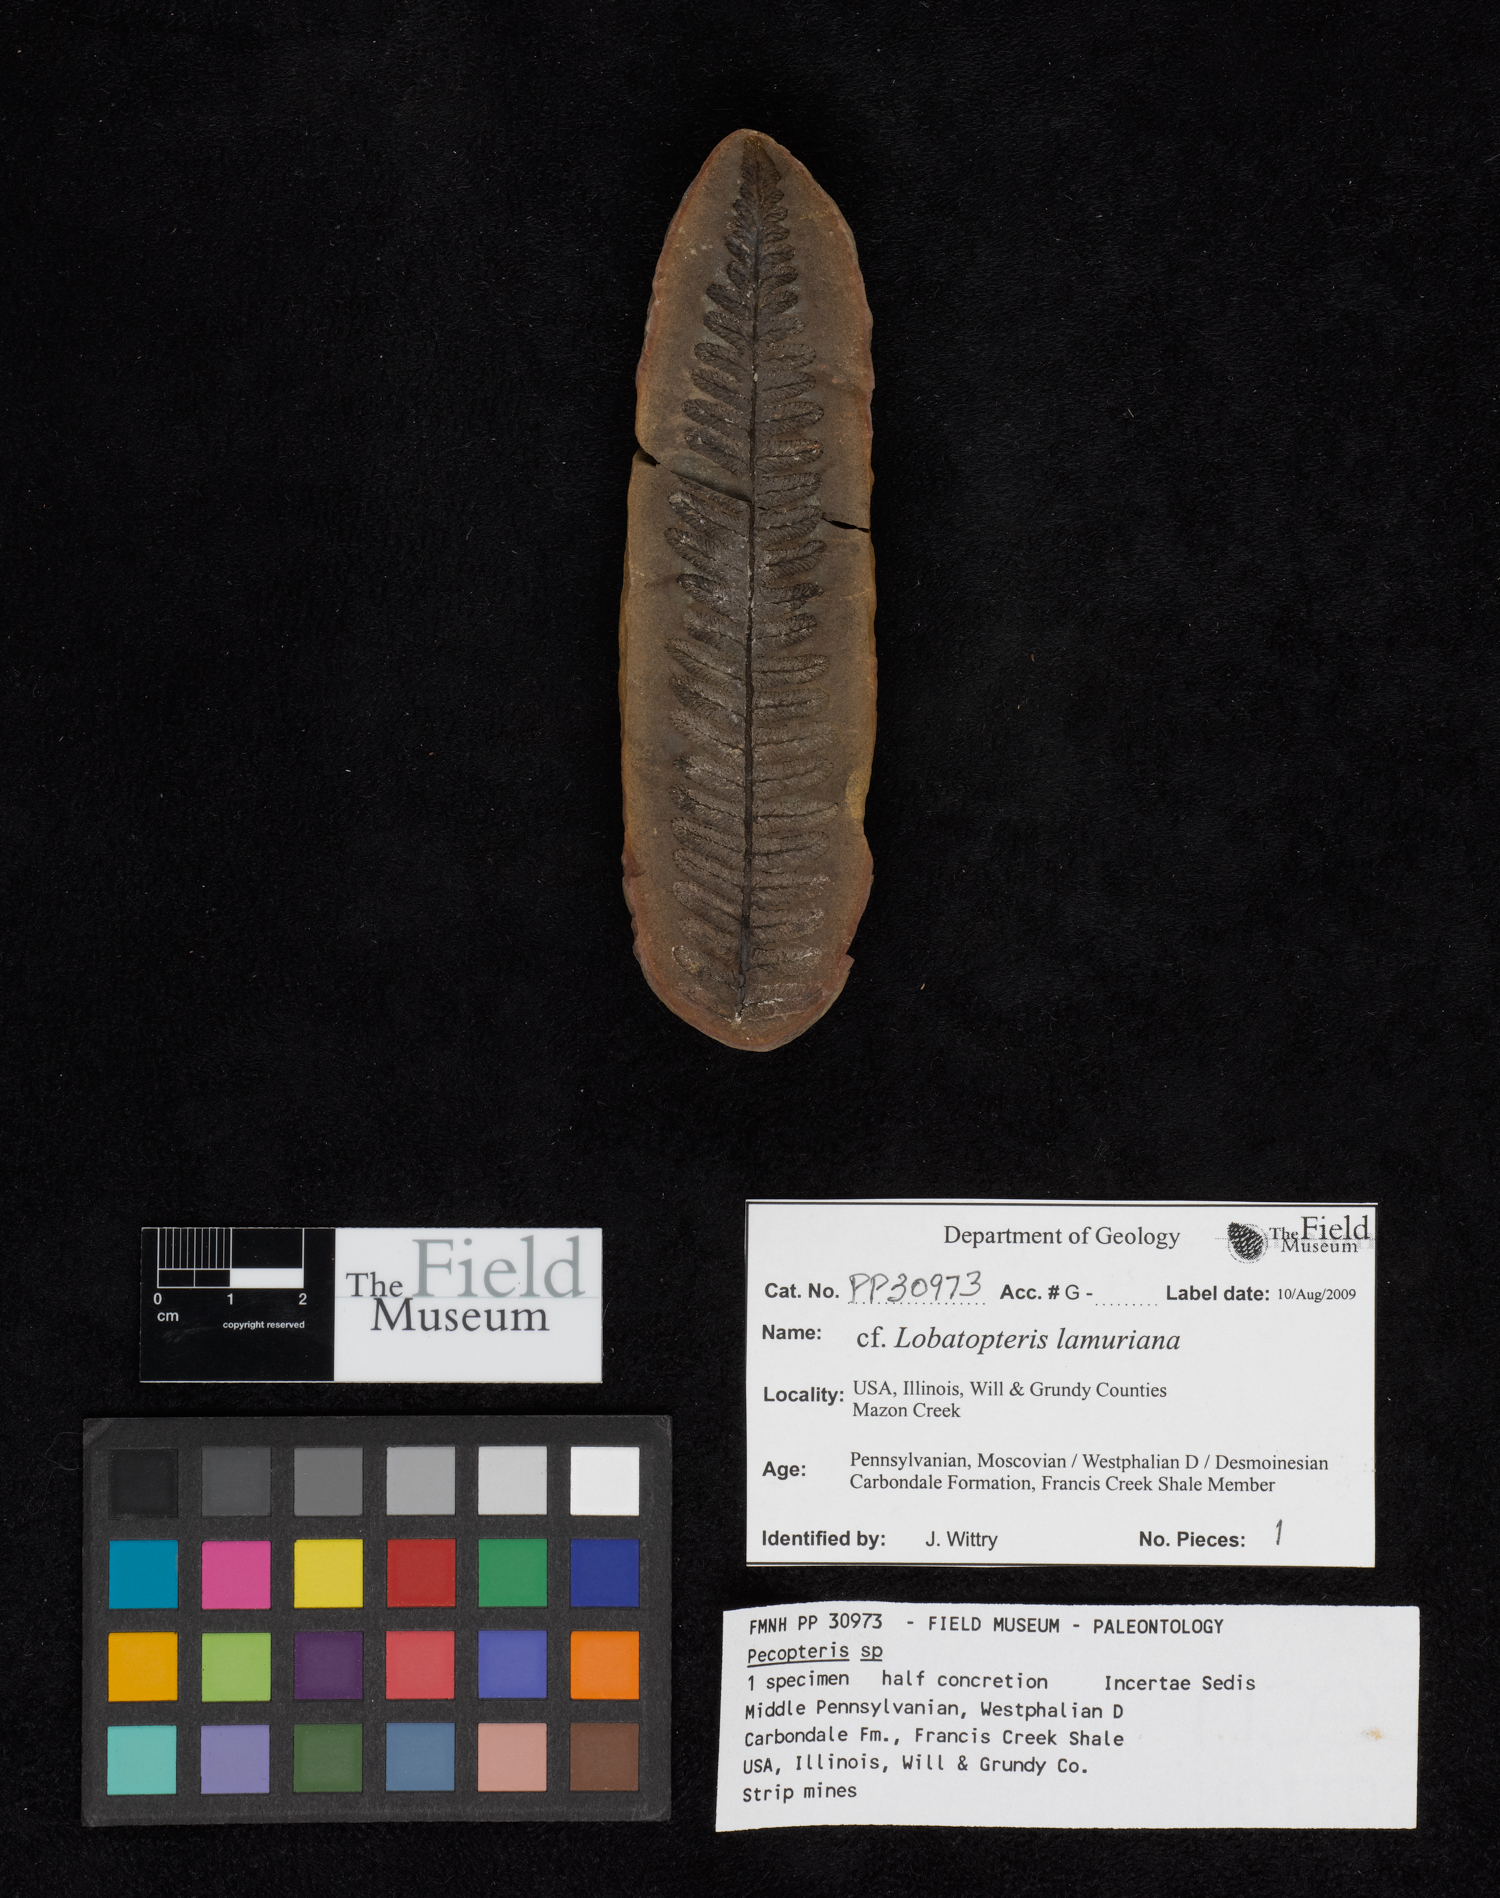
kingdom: Plantae
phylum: Tracheophyta
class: Polypodiopsida
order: Marattiales
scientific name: Marattiales
